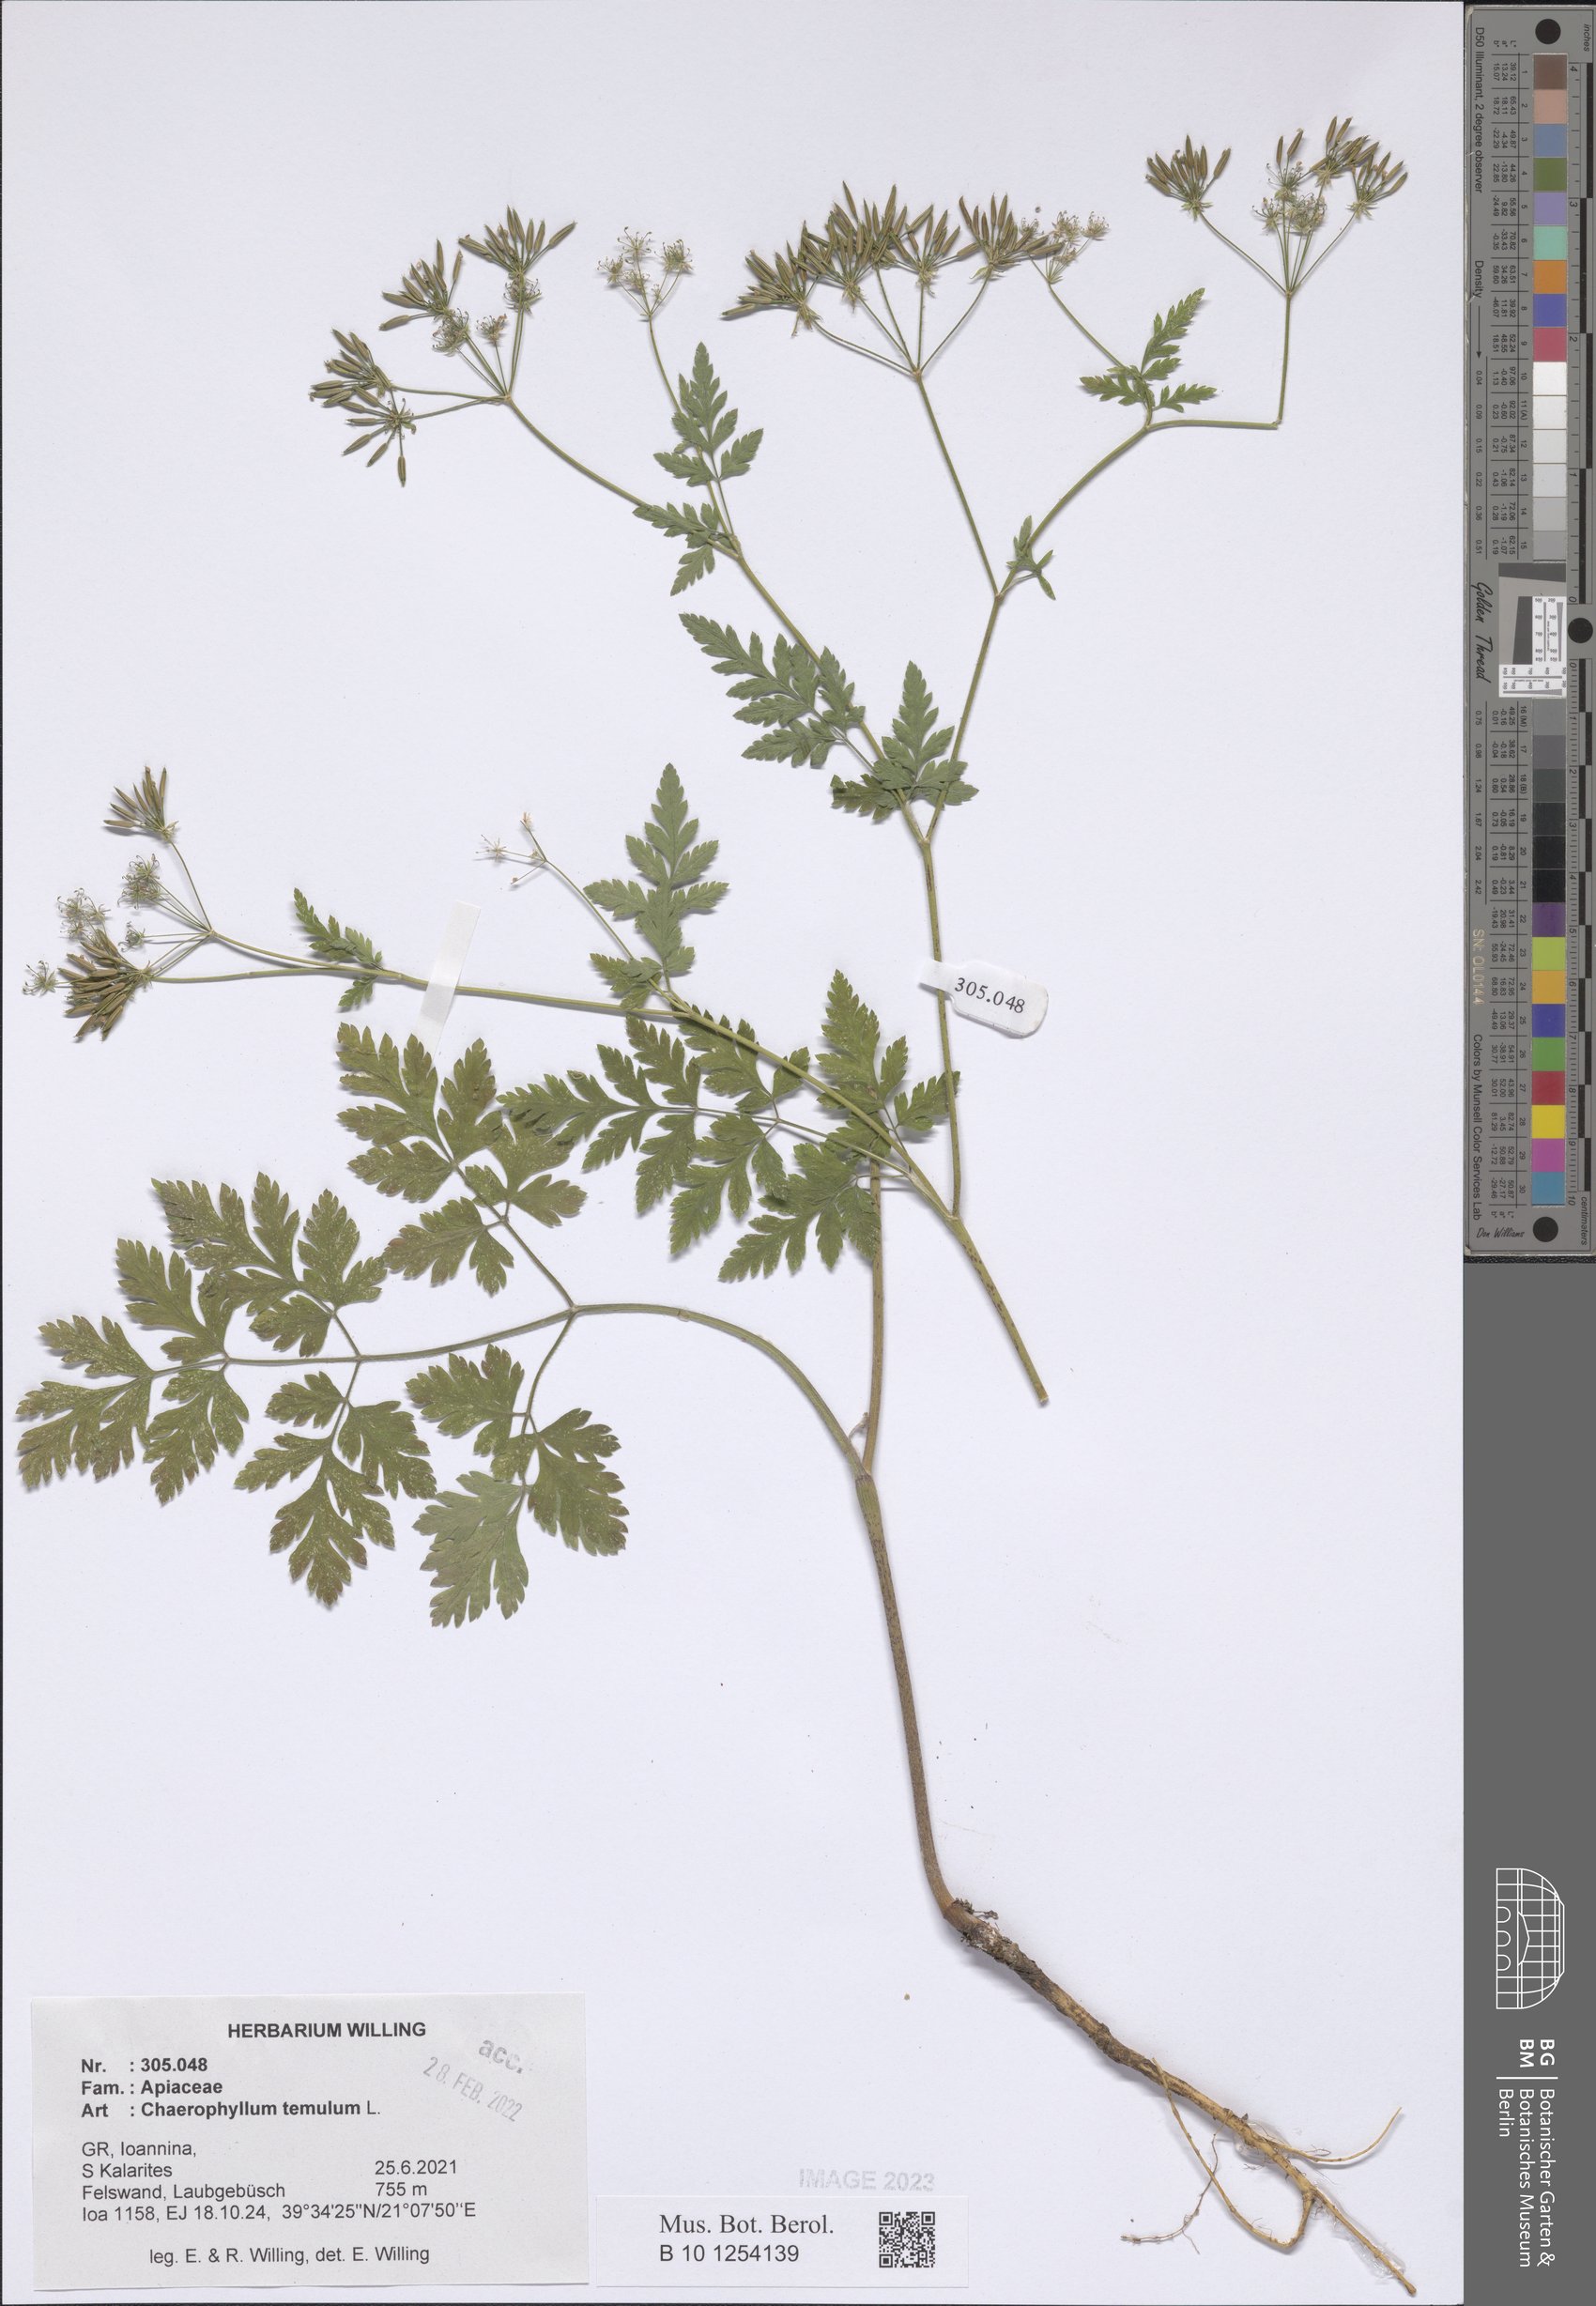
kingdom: Plantae
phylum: Tracheophyta
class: Magnoliopsida
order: Apiales
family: Apiaceae
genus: Chaerophyllum
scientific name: Chaerophyllum temulum
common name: Rough chervil
